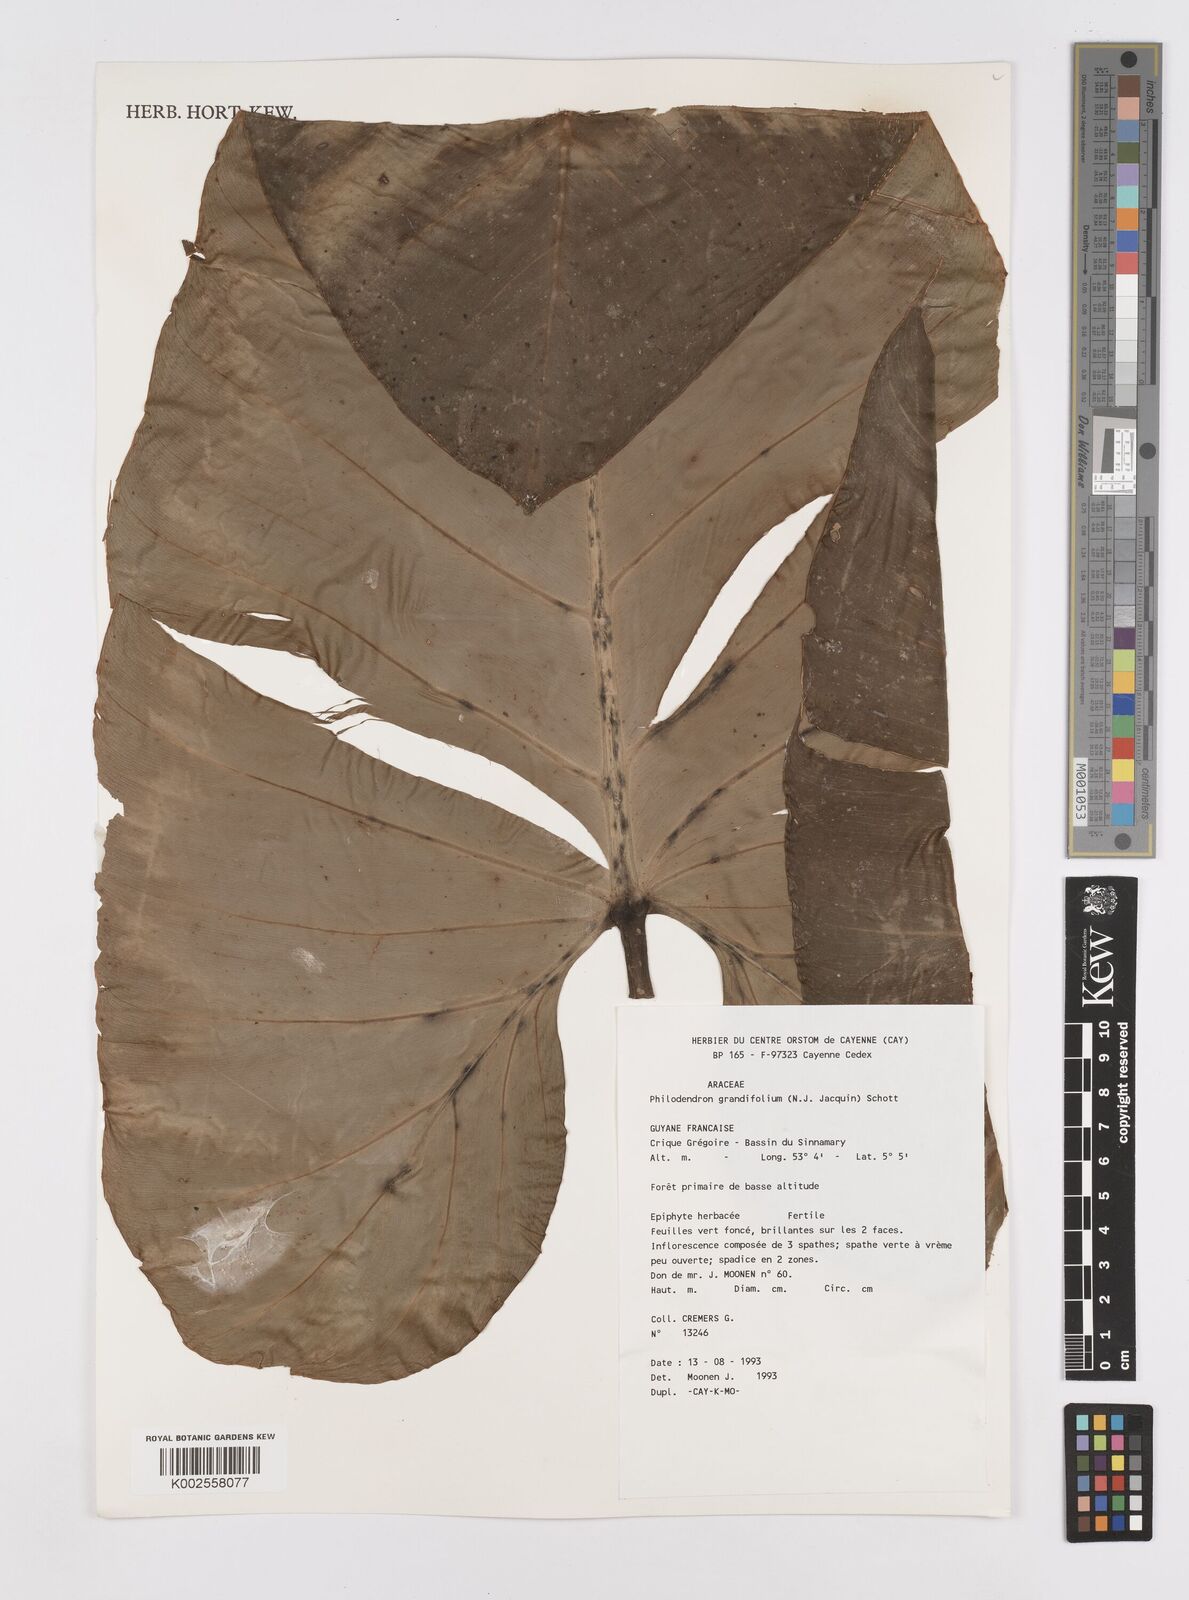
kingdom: Plantae
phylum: Tracheophyta
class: Liliopsida
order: Alismatales
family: Araceae
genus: Philodendron
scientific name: Philodendron grandifolium
